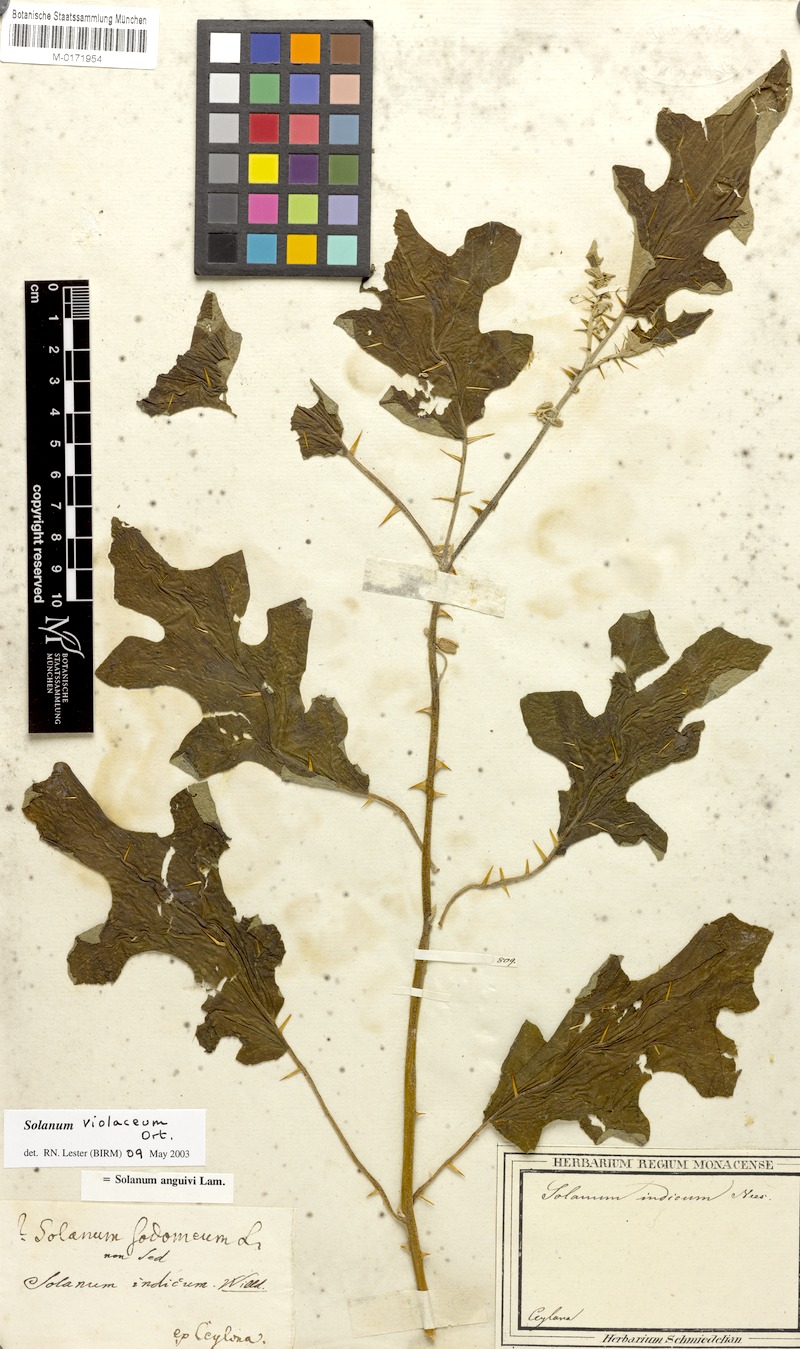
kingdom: Plantae
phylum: Tracheophyta
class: Magnoliopsida
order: Solanales
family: Solanaceae
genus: Solanum
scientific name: Solanum violaceum
